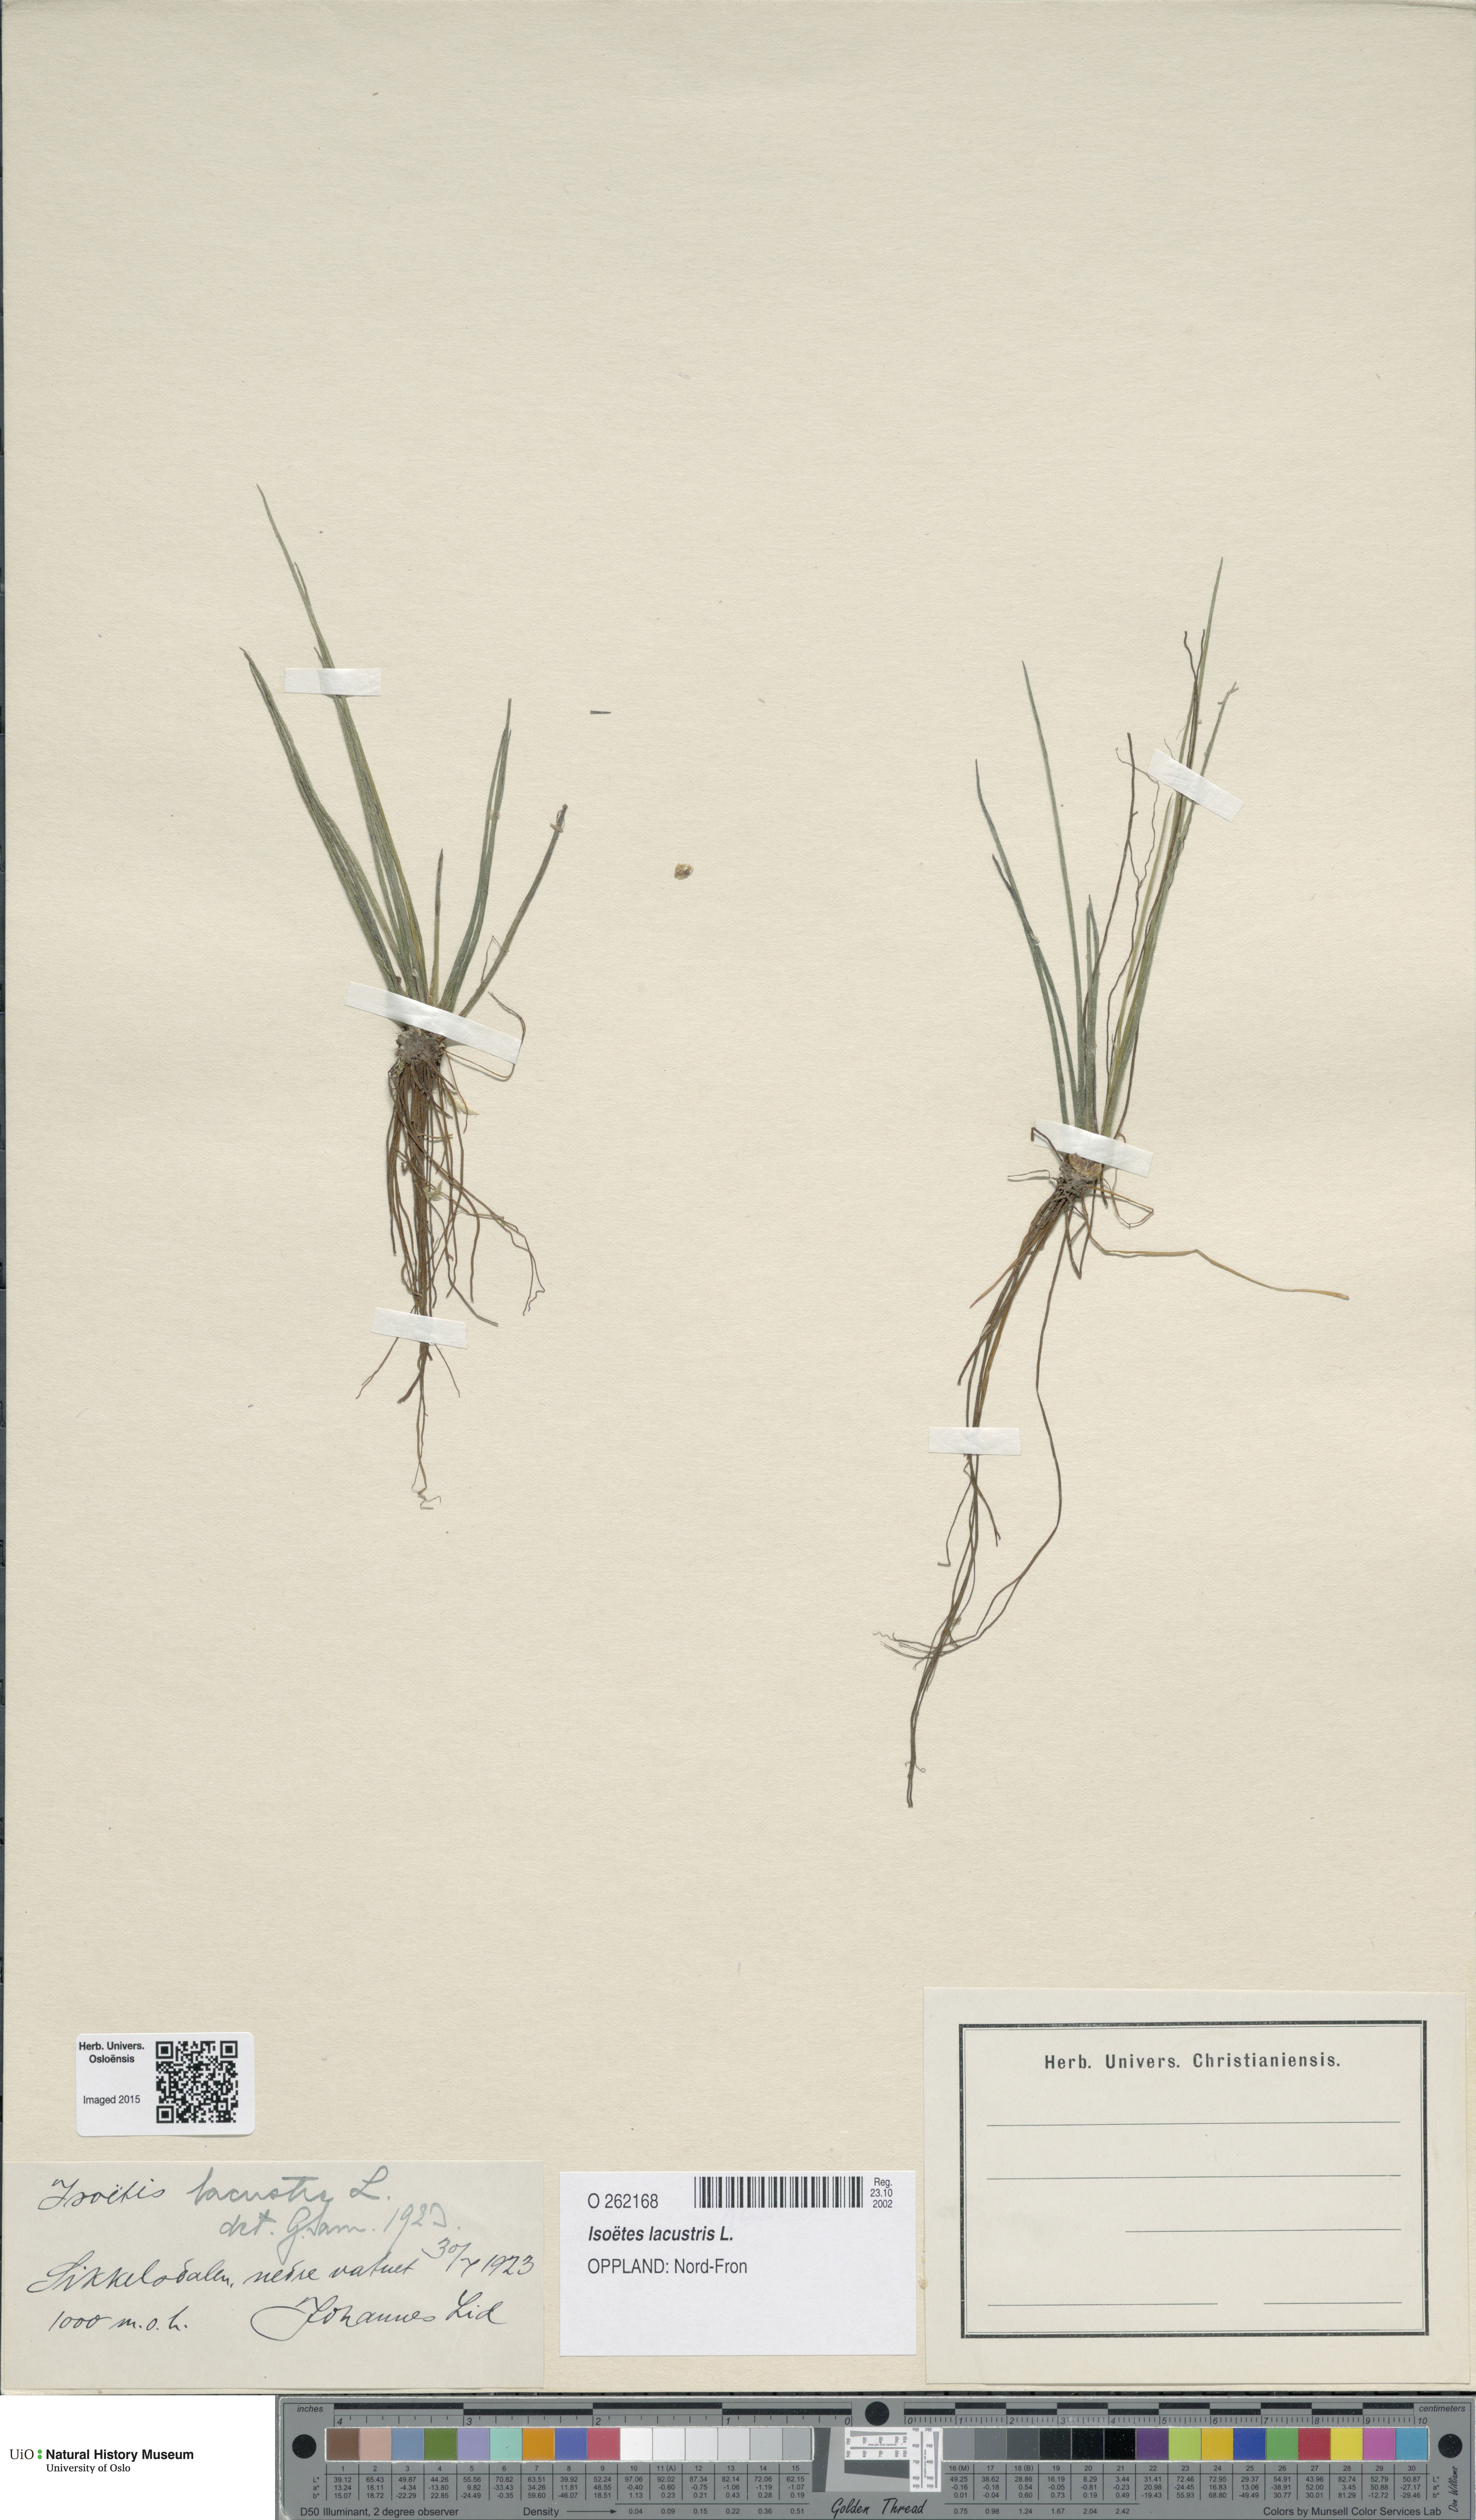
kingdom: Plantae
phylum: Tracheophyta
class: Lycopodiopsida
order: Isoetales
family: Isoetaceae
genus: Isoetes
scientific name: Isoetes lacustris
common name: Common quillwort
